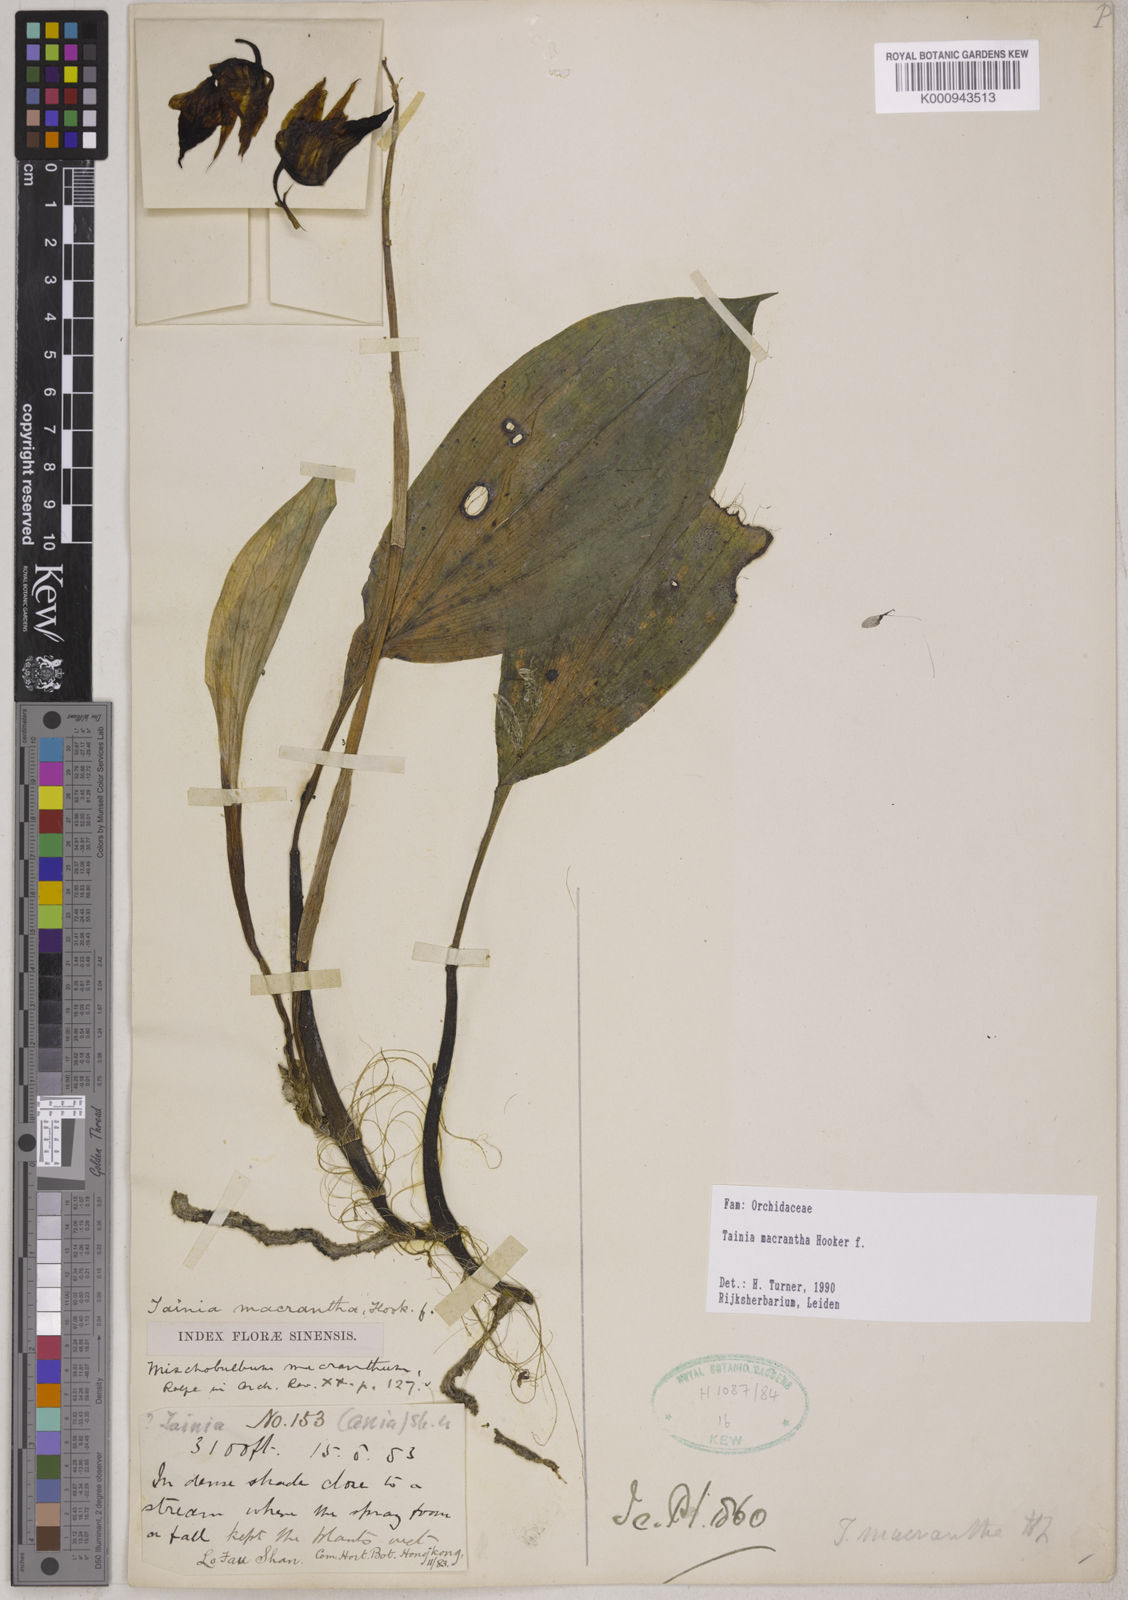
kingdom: Plantae
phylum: Tracheophyta
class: Liliopsida
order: Asparagales
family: Orchidaceae
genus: Tainia
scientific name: Tainia macrantha
